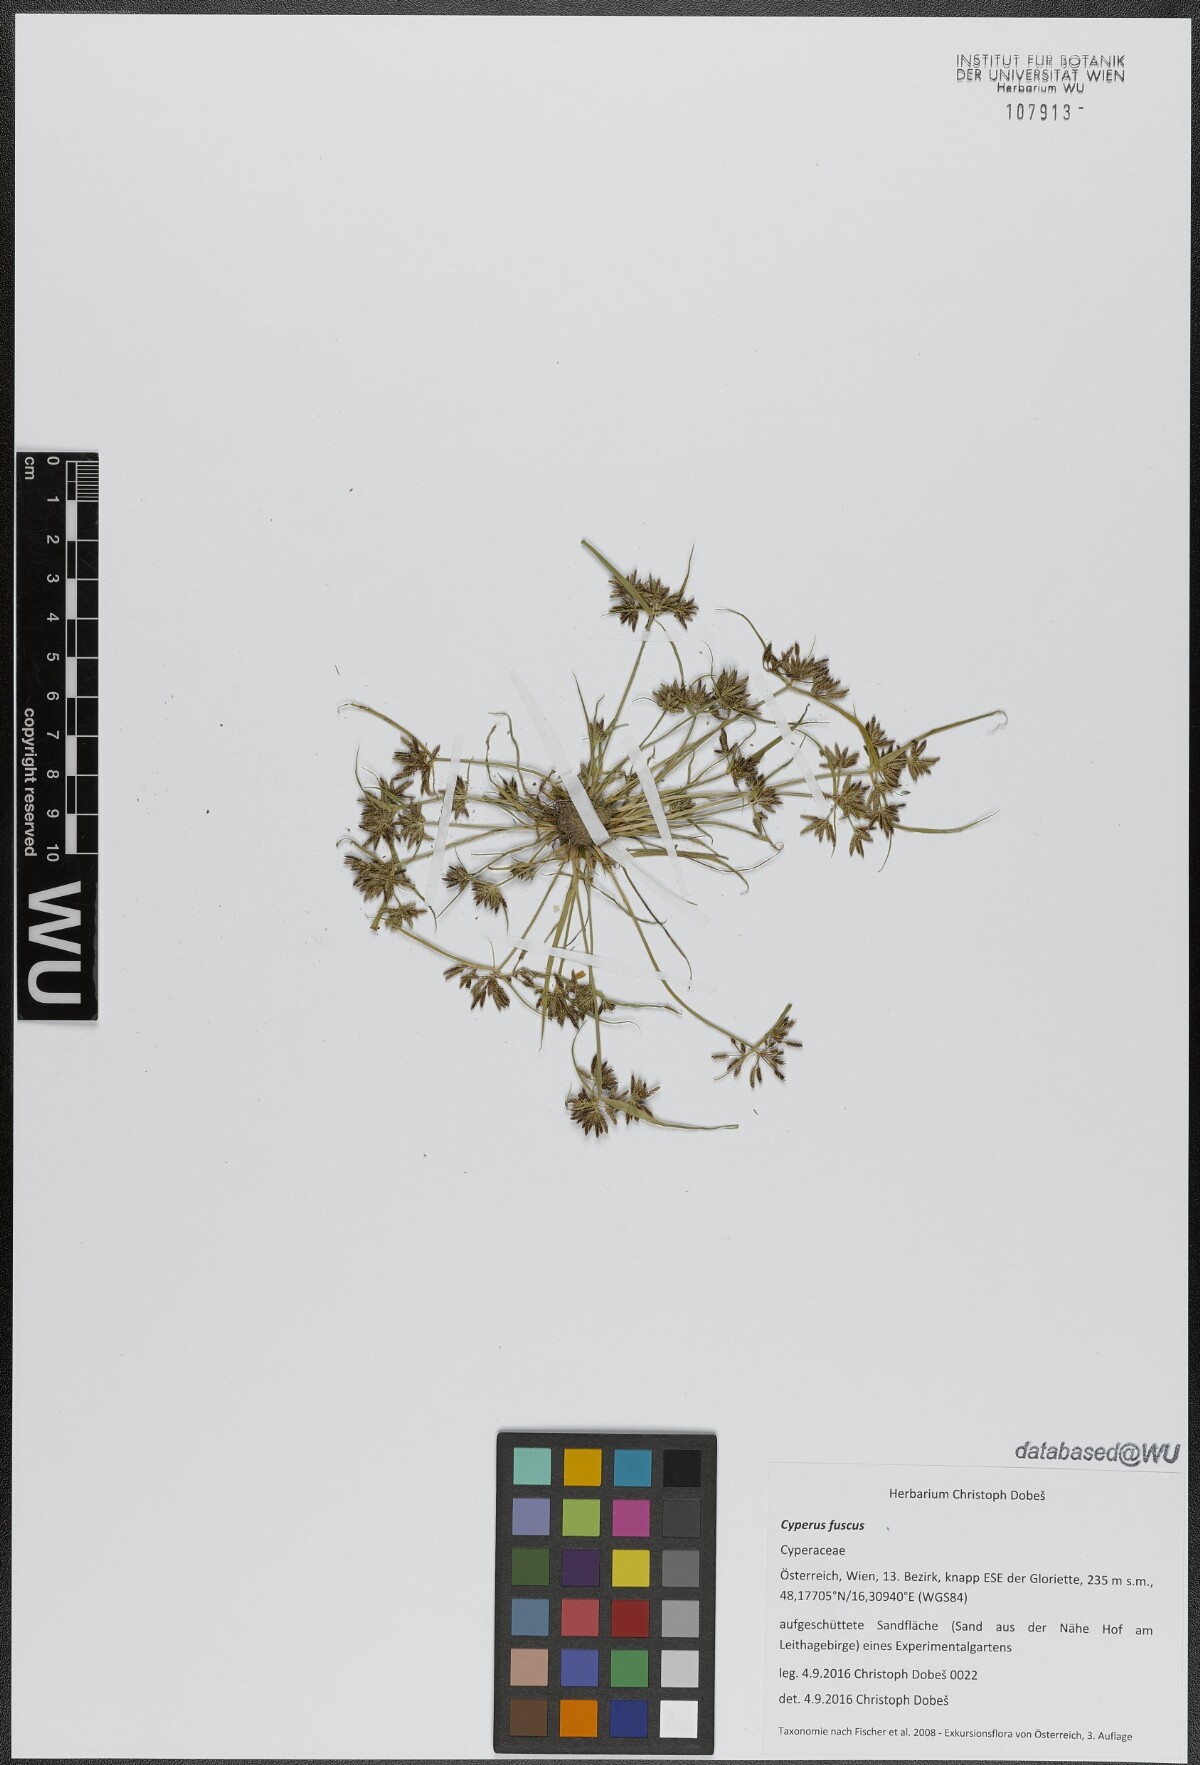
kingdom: Plantae
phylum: Tracheophyta
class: Liliopsida
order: Poales
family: Cyperaceae
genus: Cyperus
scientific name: Cyperus fuscus
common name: Brown galingale
